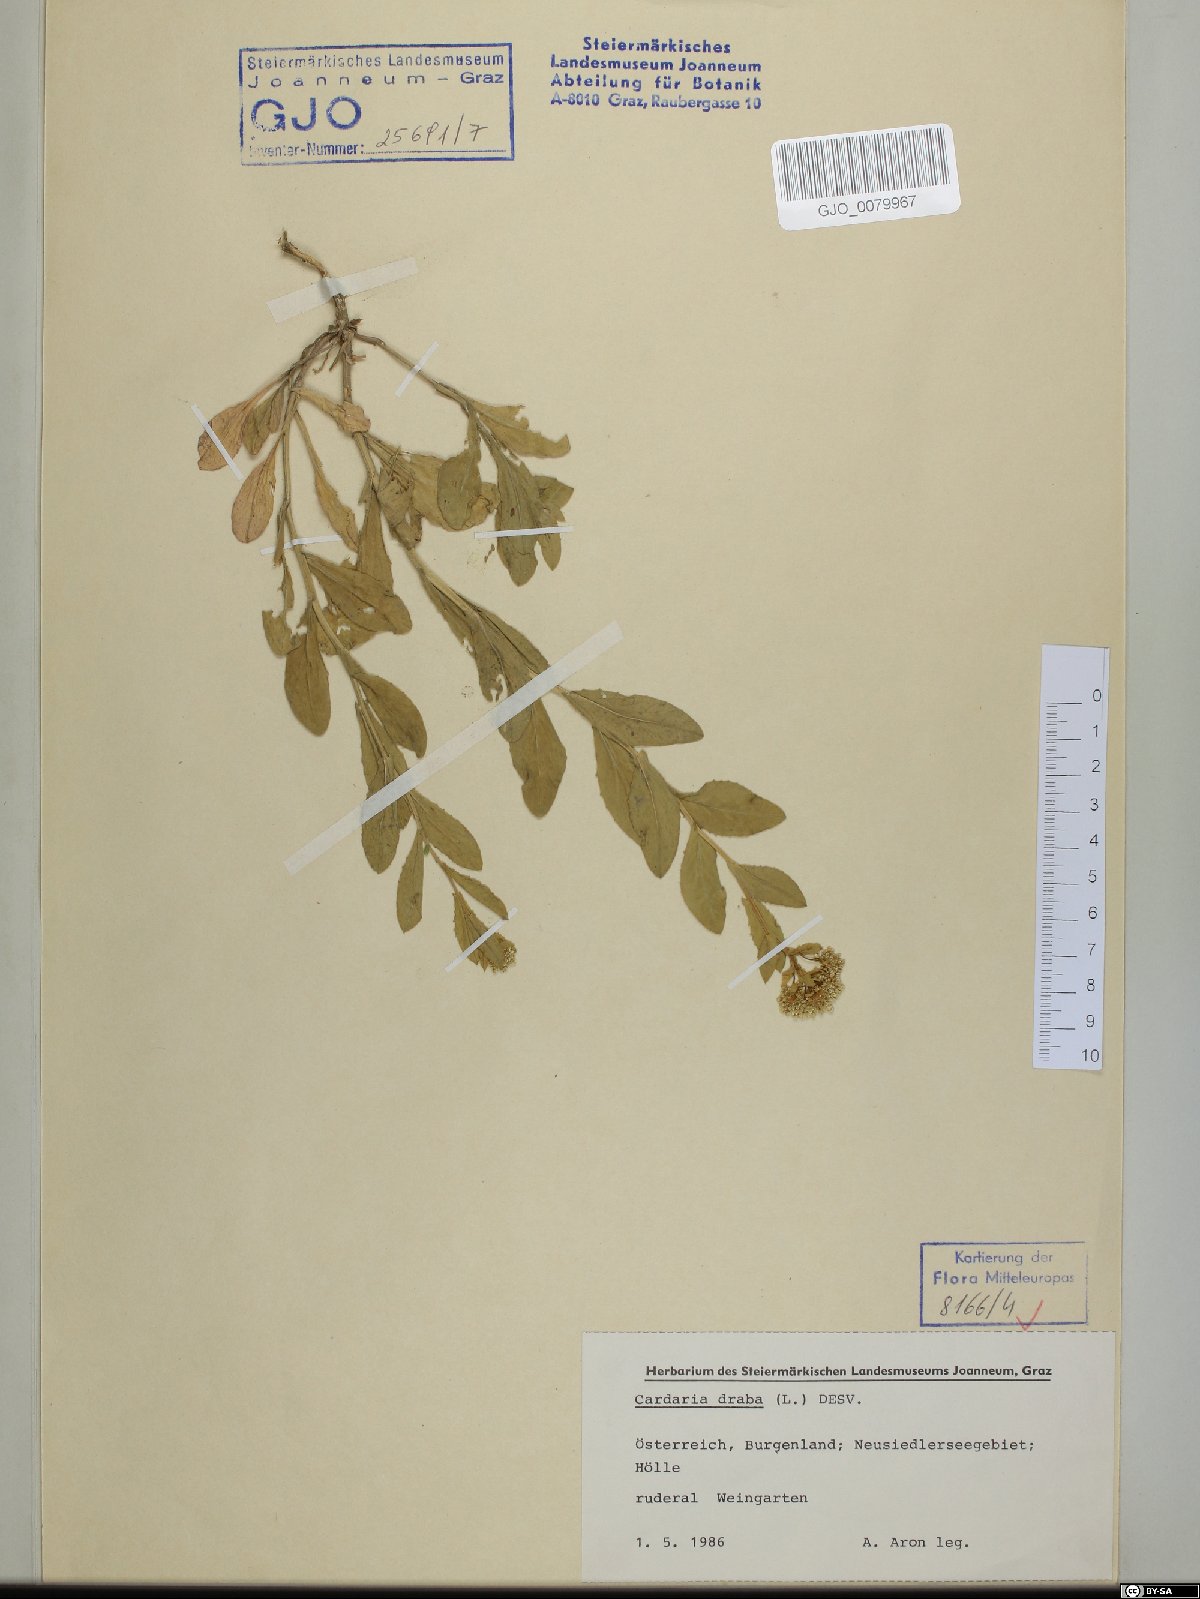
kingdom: Plantae
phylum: Tracheophyta
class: Magnoliopsida
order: Brassicales
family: Brassicaceae
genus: Lepidium
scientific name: Lepidium draba
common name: Hoary cress
